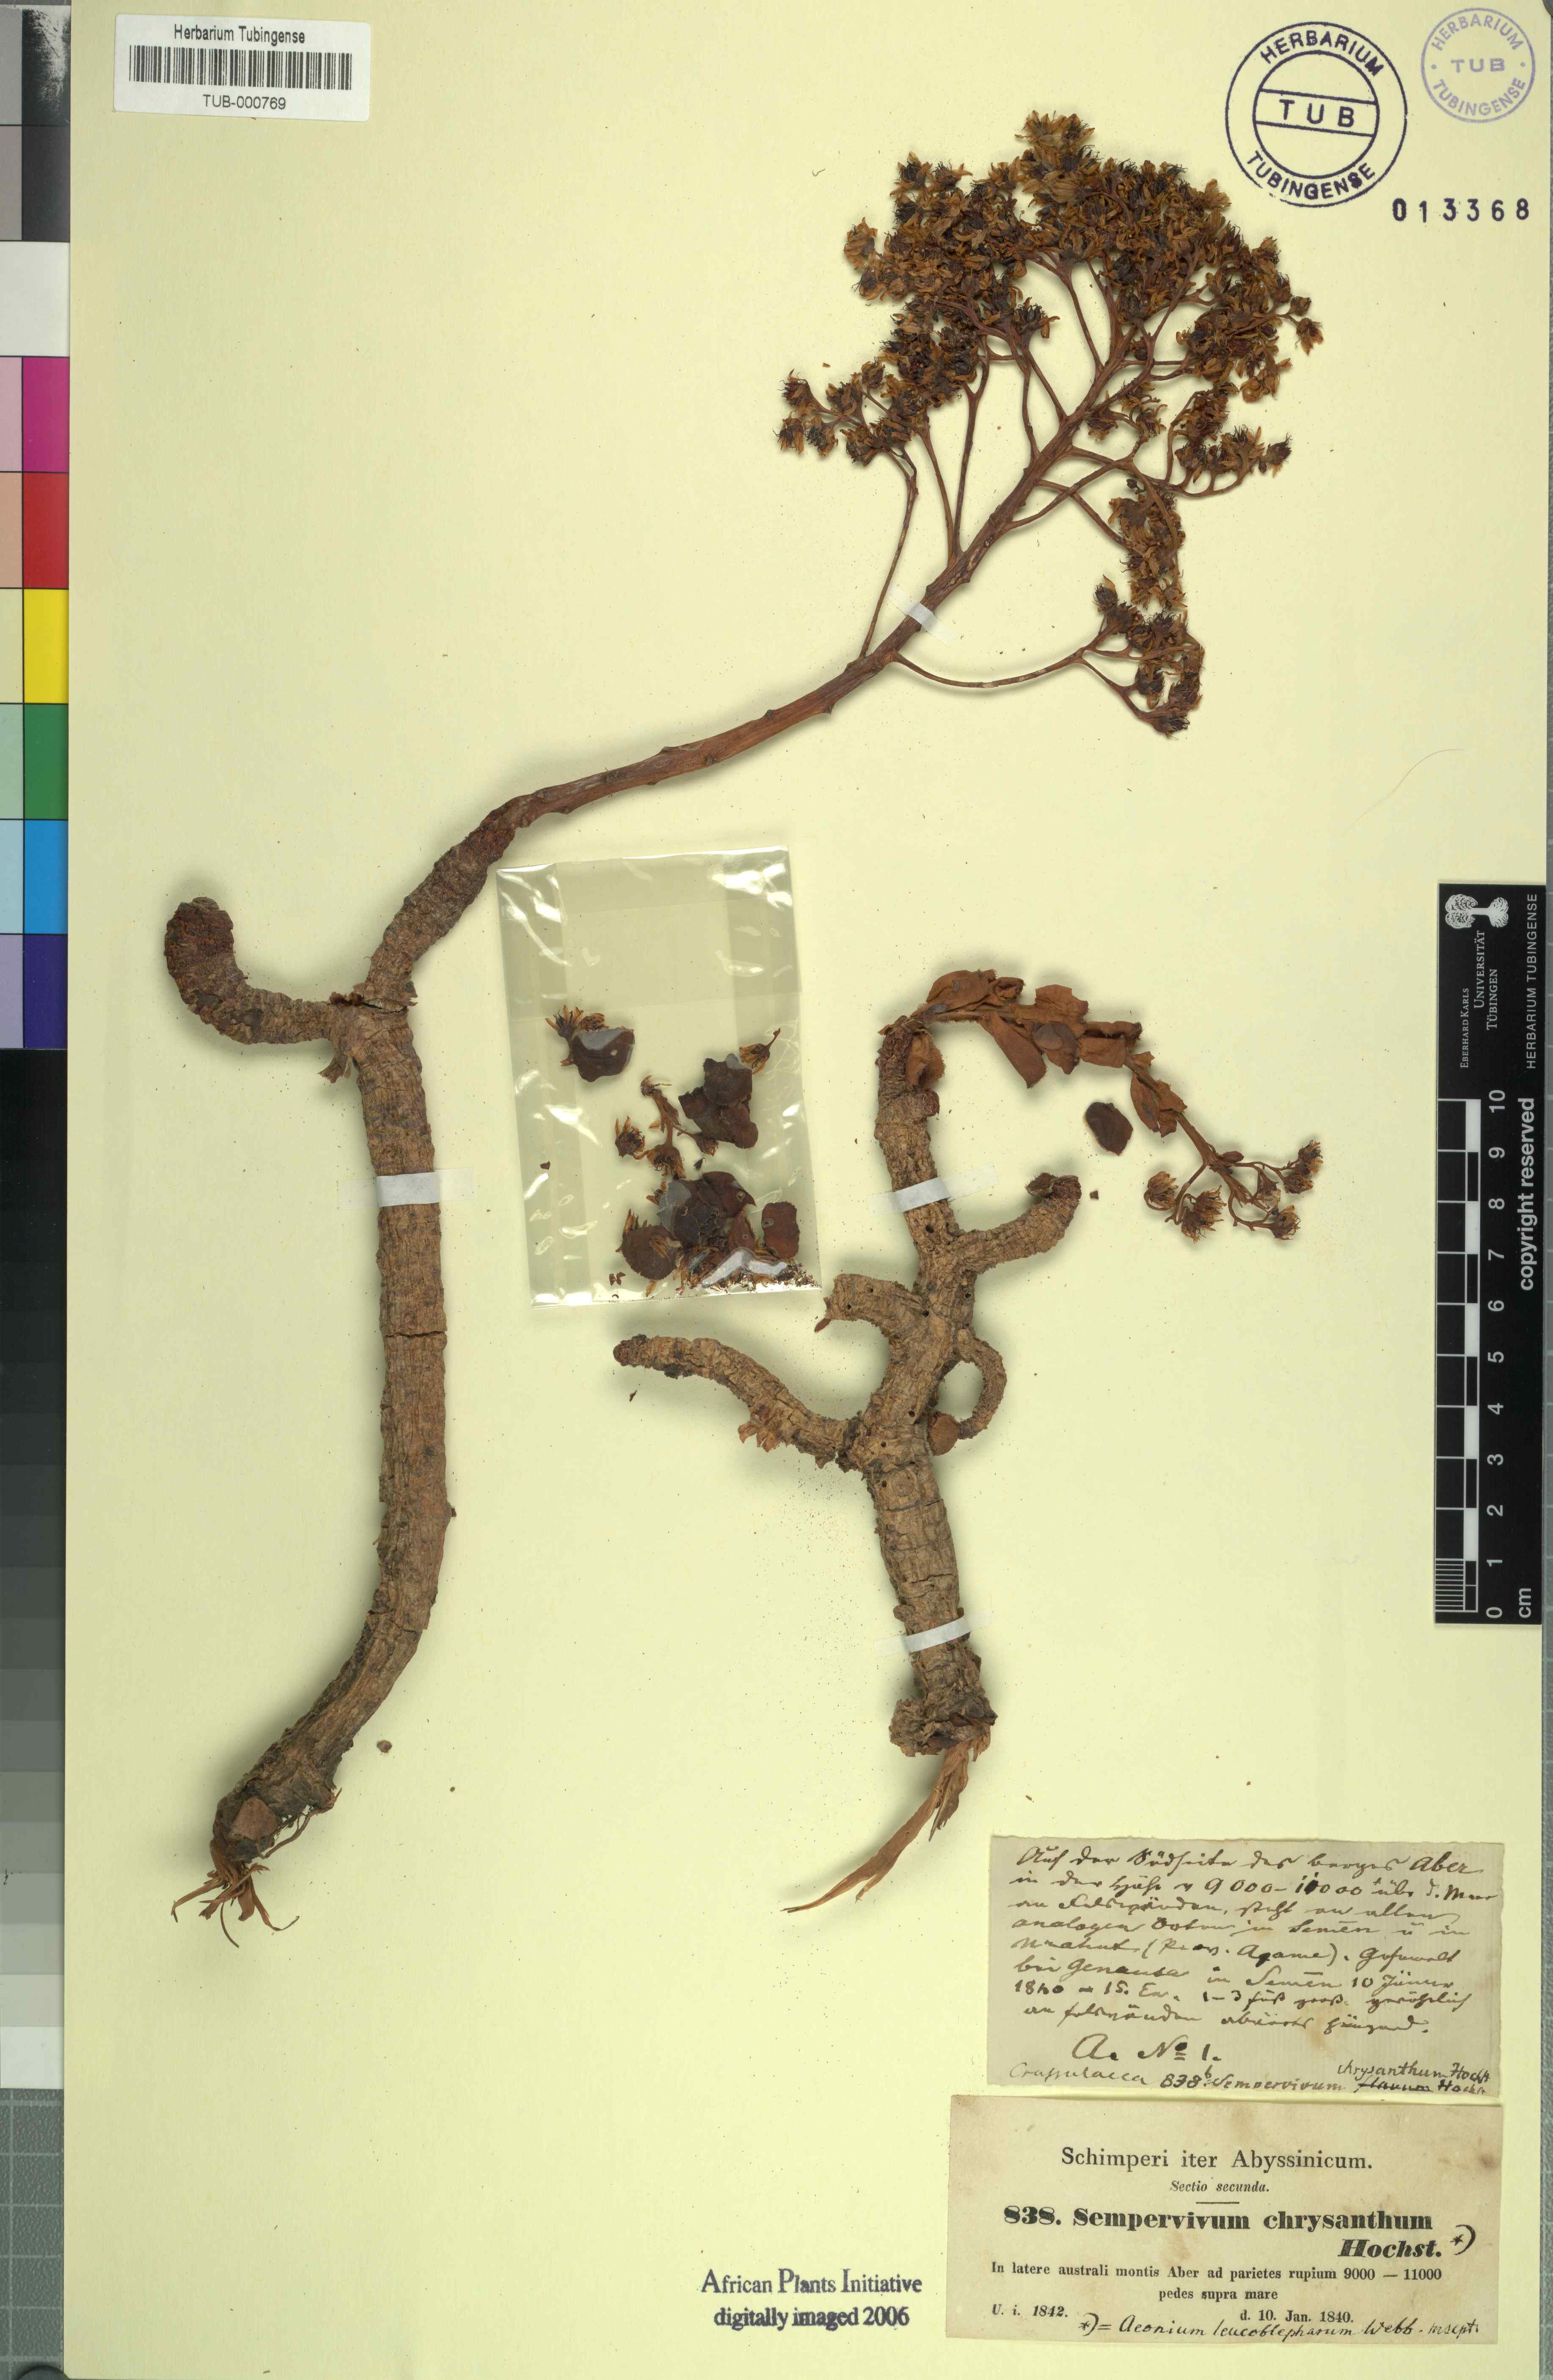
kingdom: Plantae
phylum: Tracheophyta
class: Magnoliopsida
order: Saxifragales
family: Crassulaceae
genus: Aeonium
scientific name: Aeonium leucoblepharum
